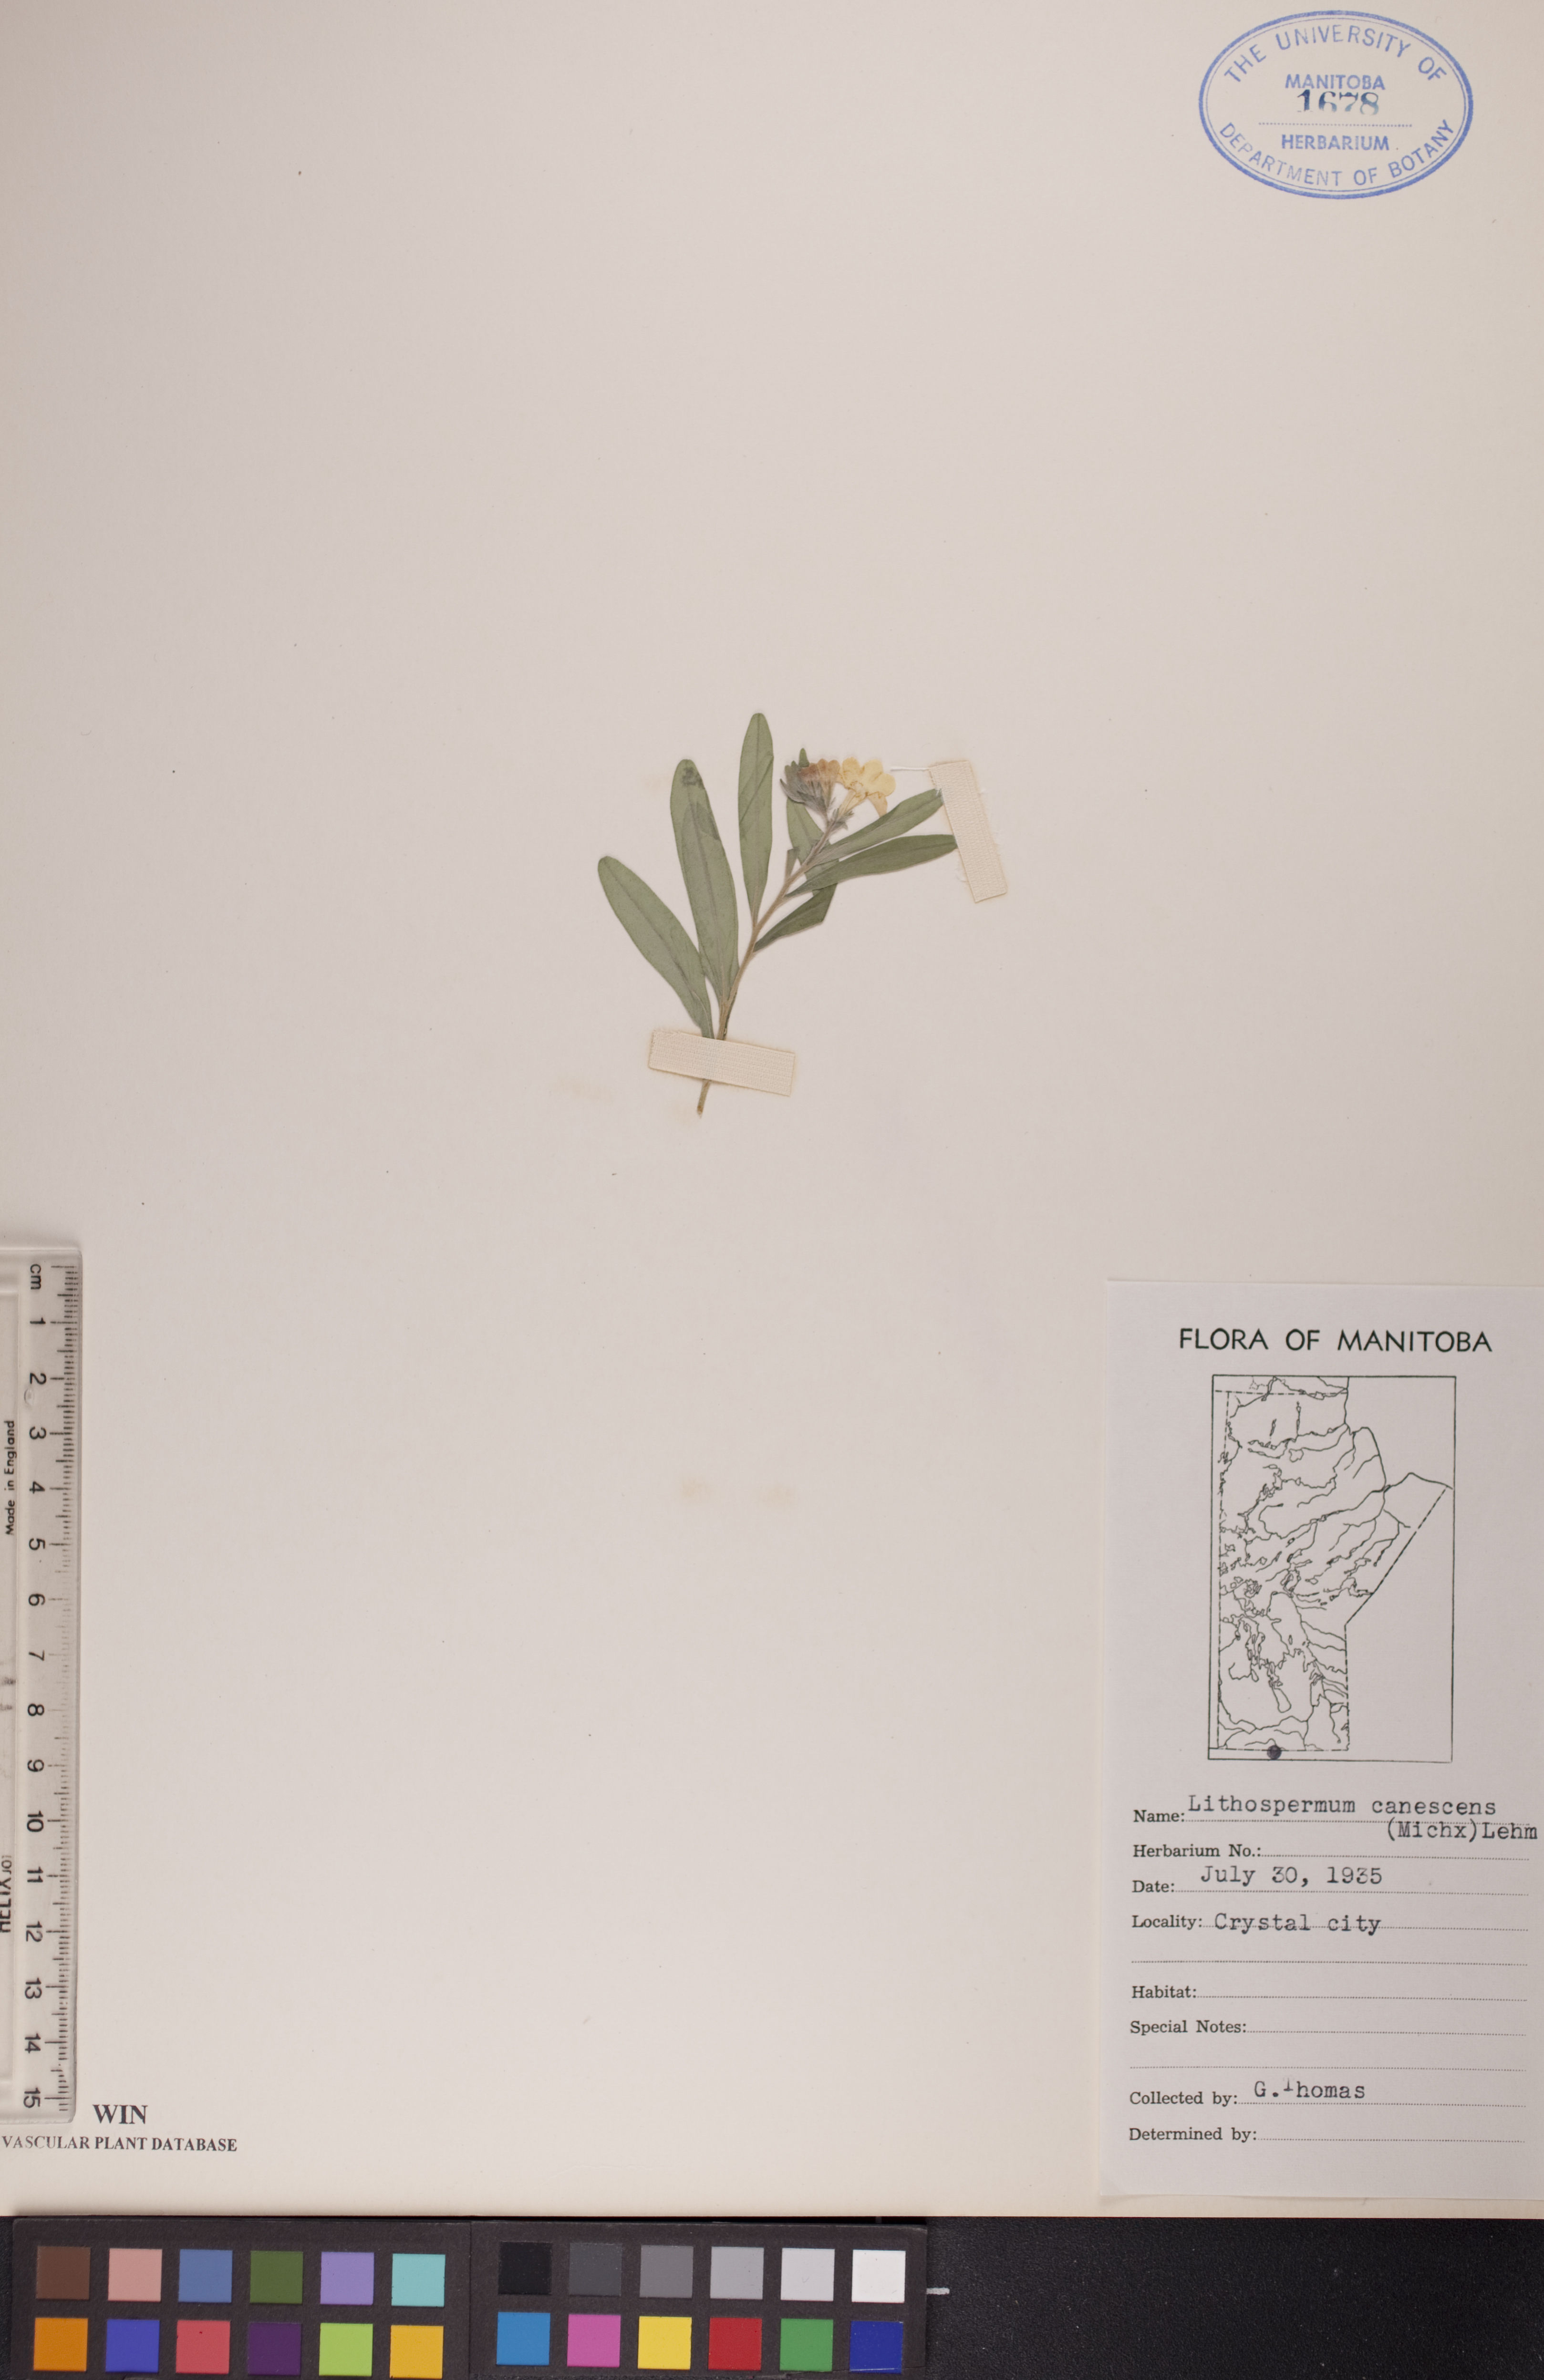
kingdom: Plantae
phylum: Tracheophyta
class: Magnoliopsida
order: Boraginales
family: Boraginaceae
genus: Lithospermum
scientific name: Lithospermum canescens
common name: Hoary puccoon
